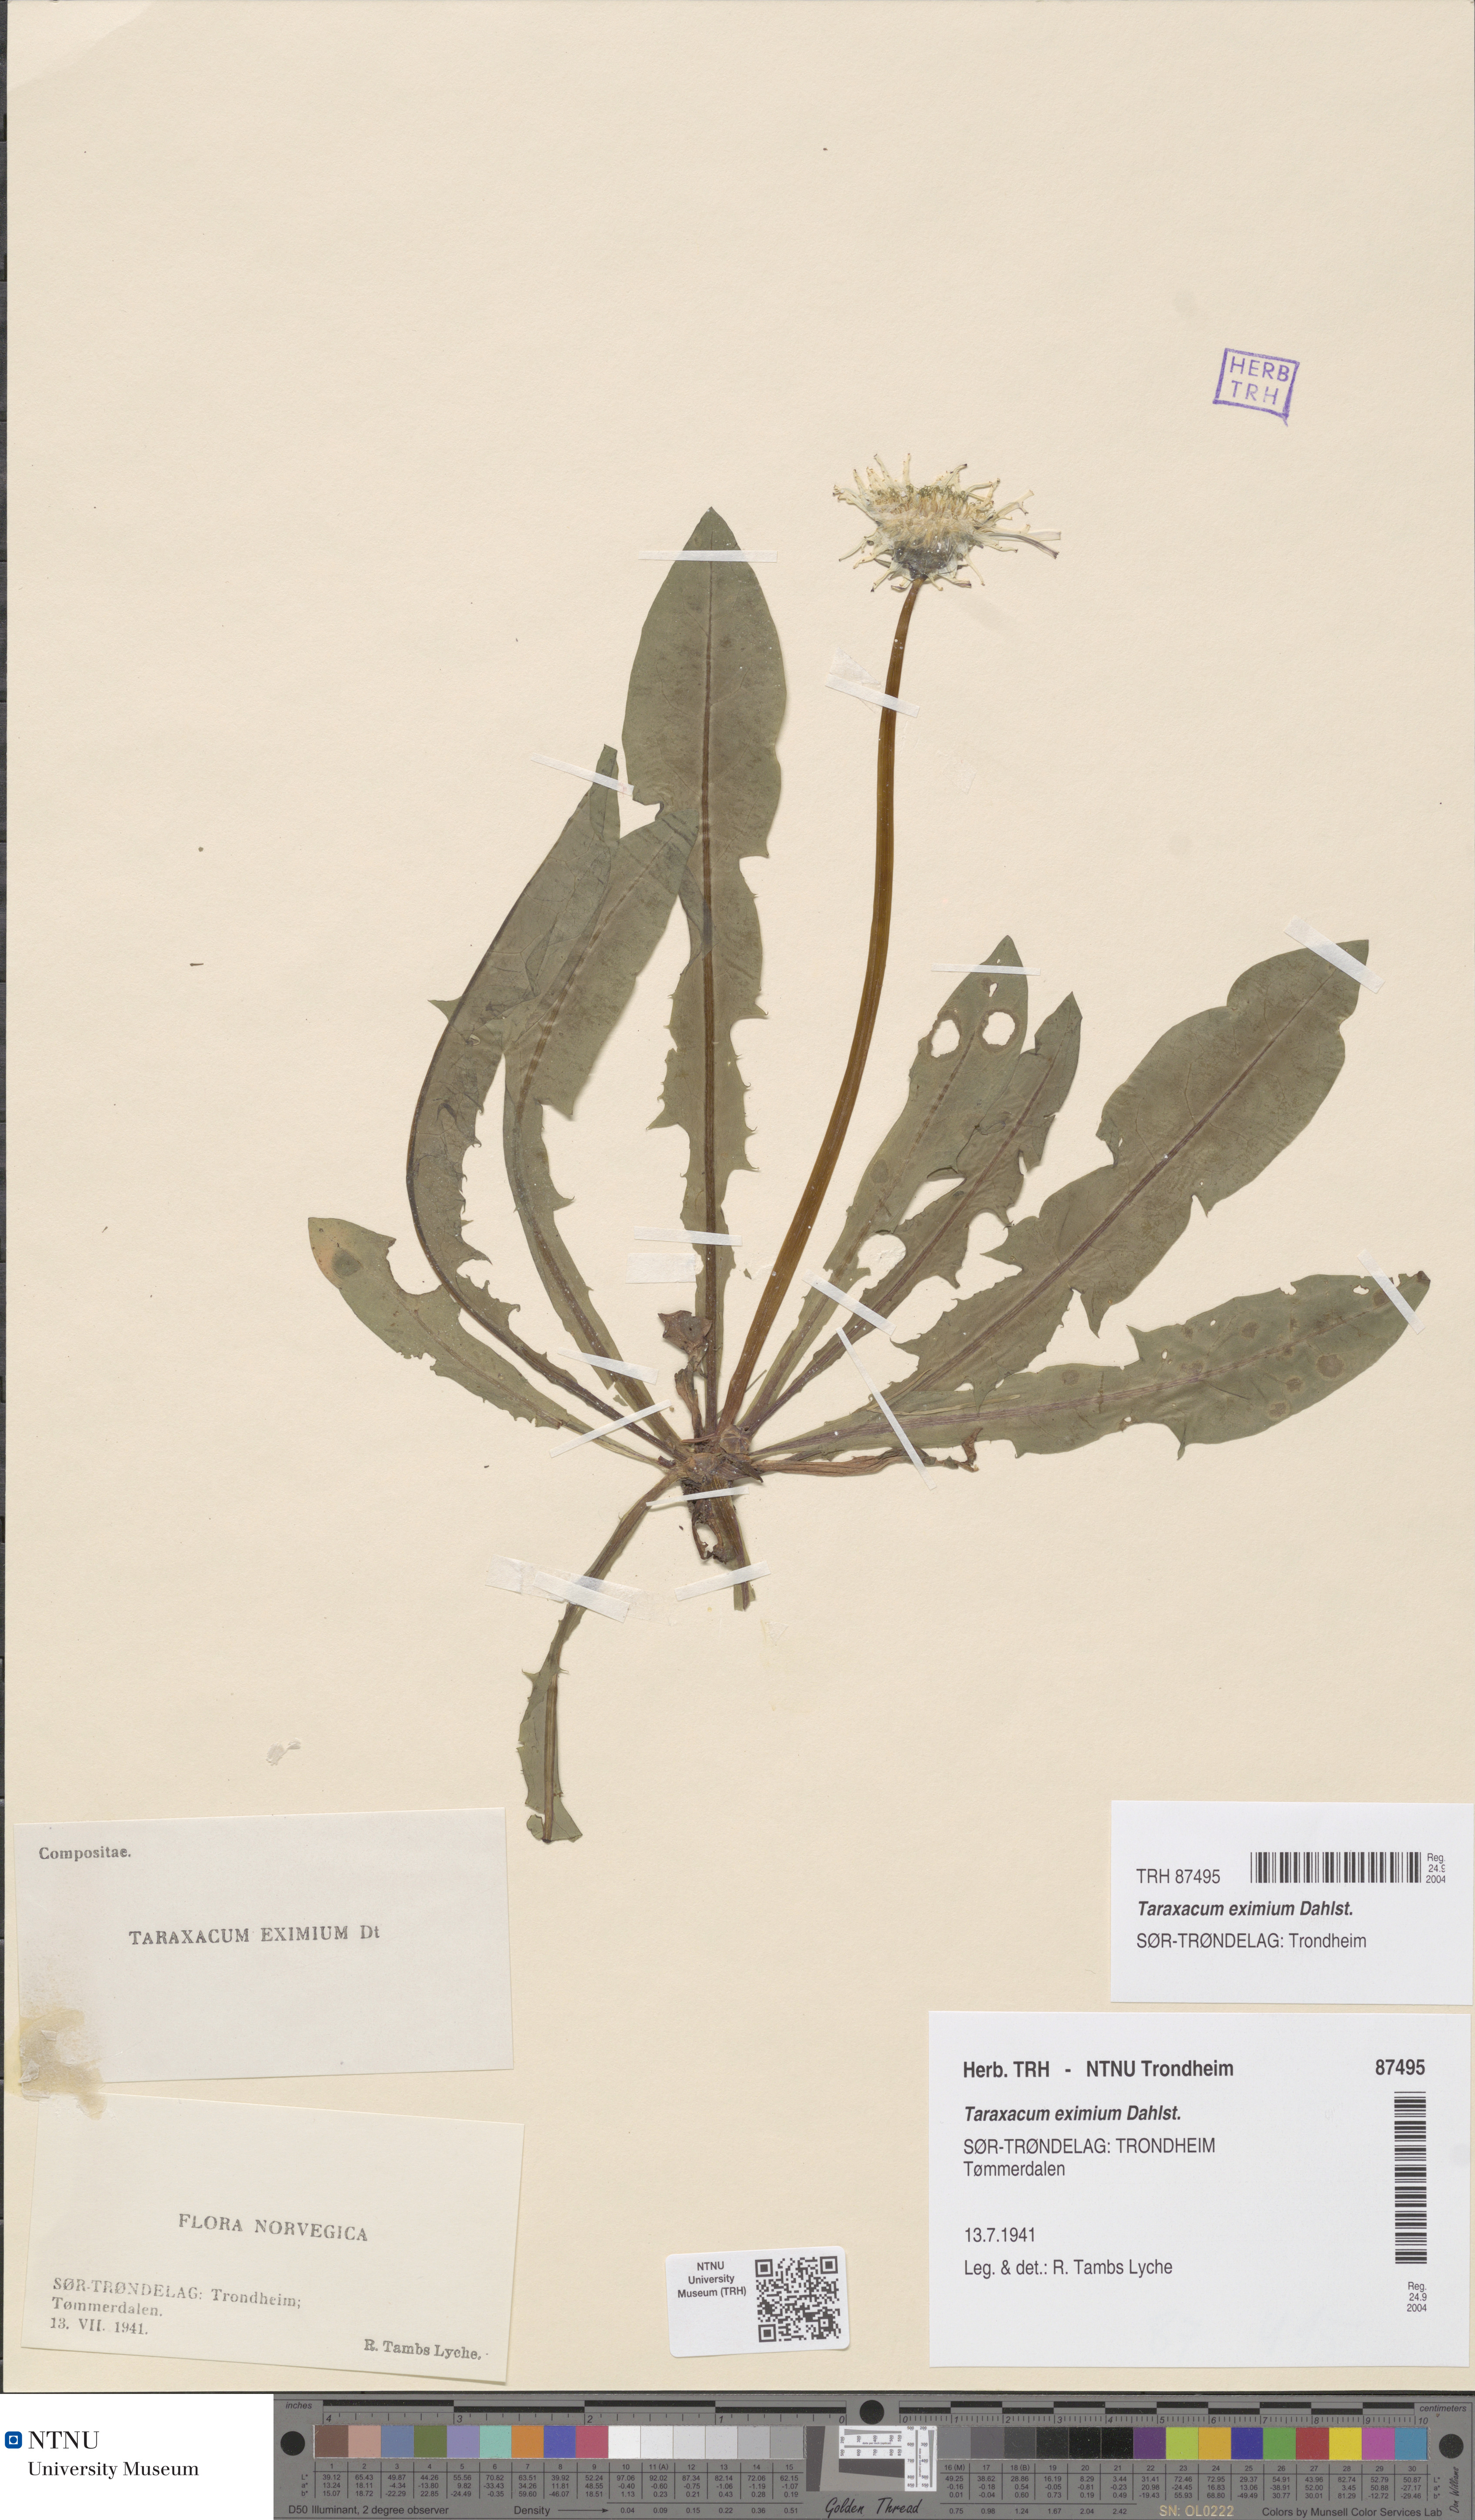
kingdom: Plantae
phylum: Tracheophyta
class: Magnoliopsida
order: Asterales
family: Asteraceae
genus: Taraxacum
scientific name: Taraxacum eximium
